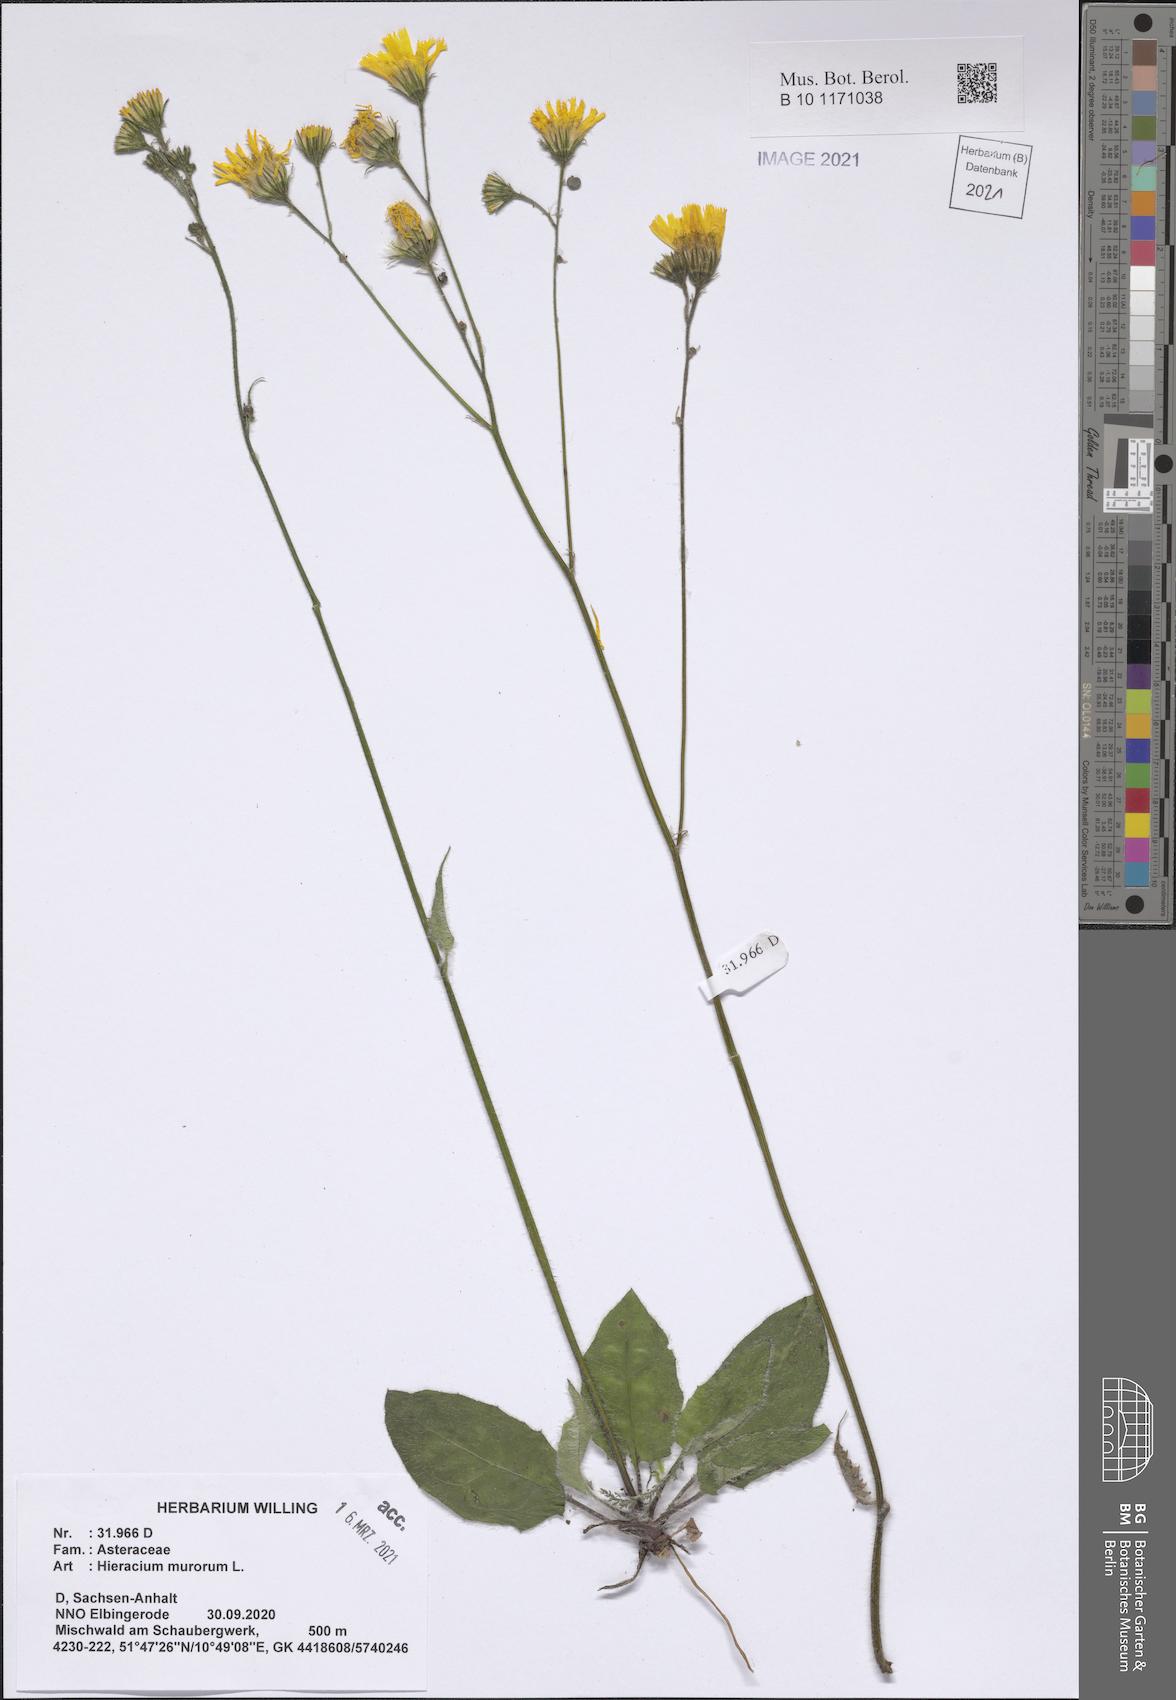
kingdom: Plantae
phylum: Tracheophyta
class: Magnoliopsida
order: Asterales
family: Asteraceae
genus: Hieracium
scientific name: Hieracium murorum
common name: Wall hawkweed
